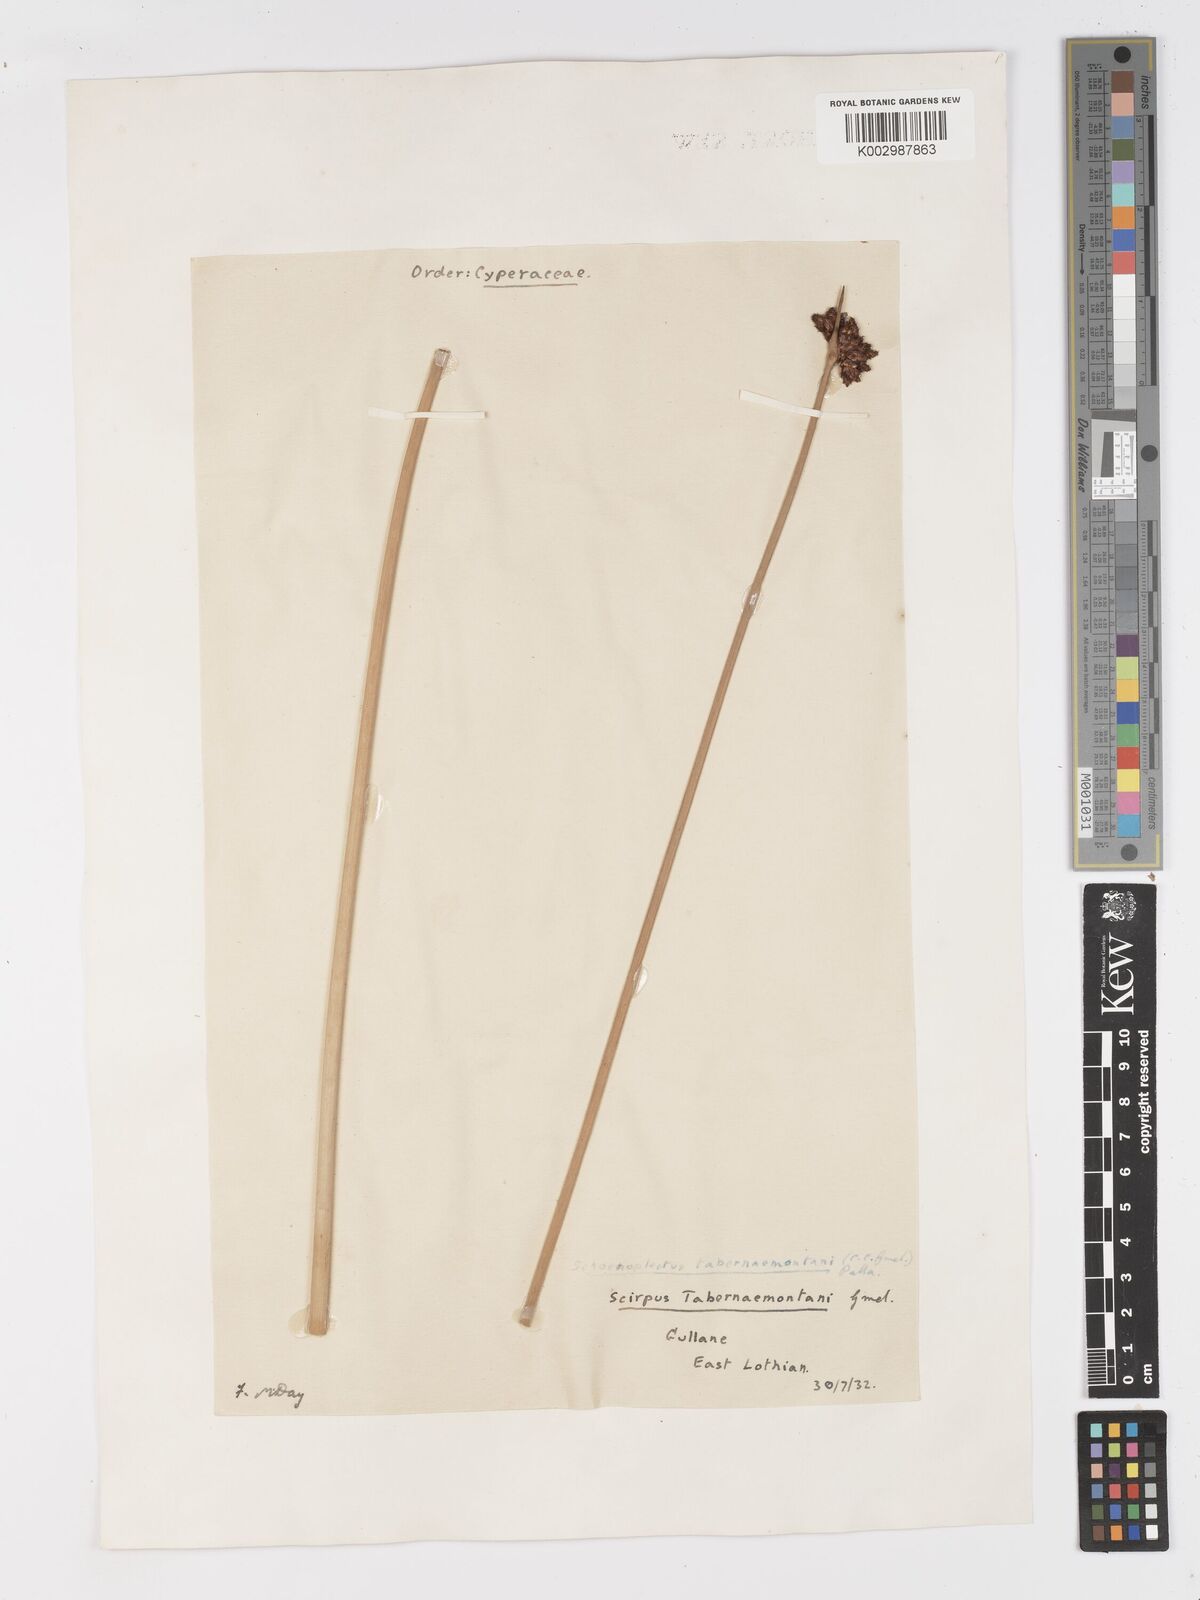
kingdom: Plantae
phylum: Tracheophyta
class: Liliopsida
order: Poales
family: Cyperaceae
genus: Schoenoplectus
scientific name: Schoenoplectus tabernaemontani
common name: Grey club-rush
